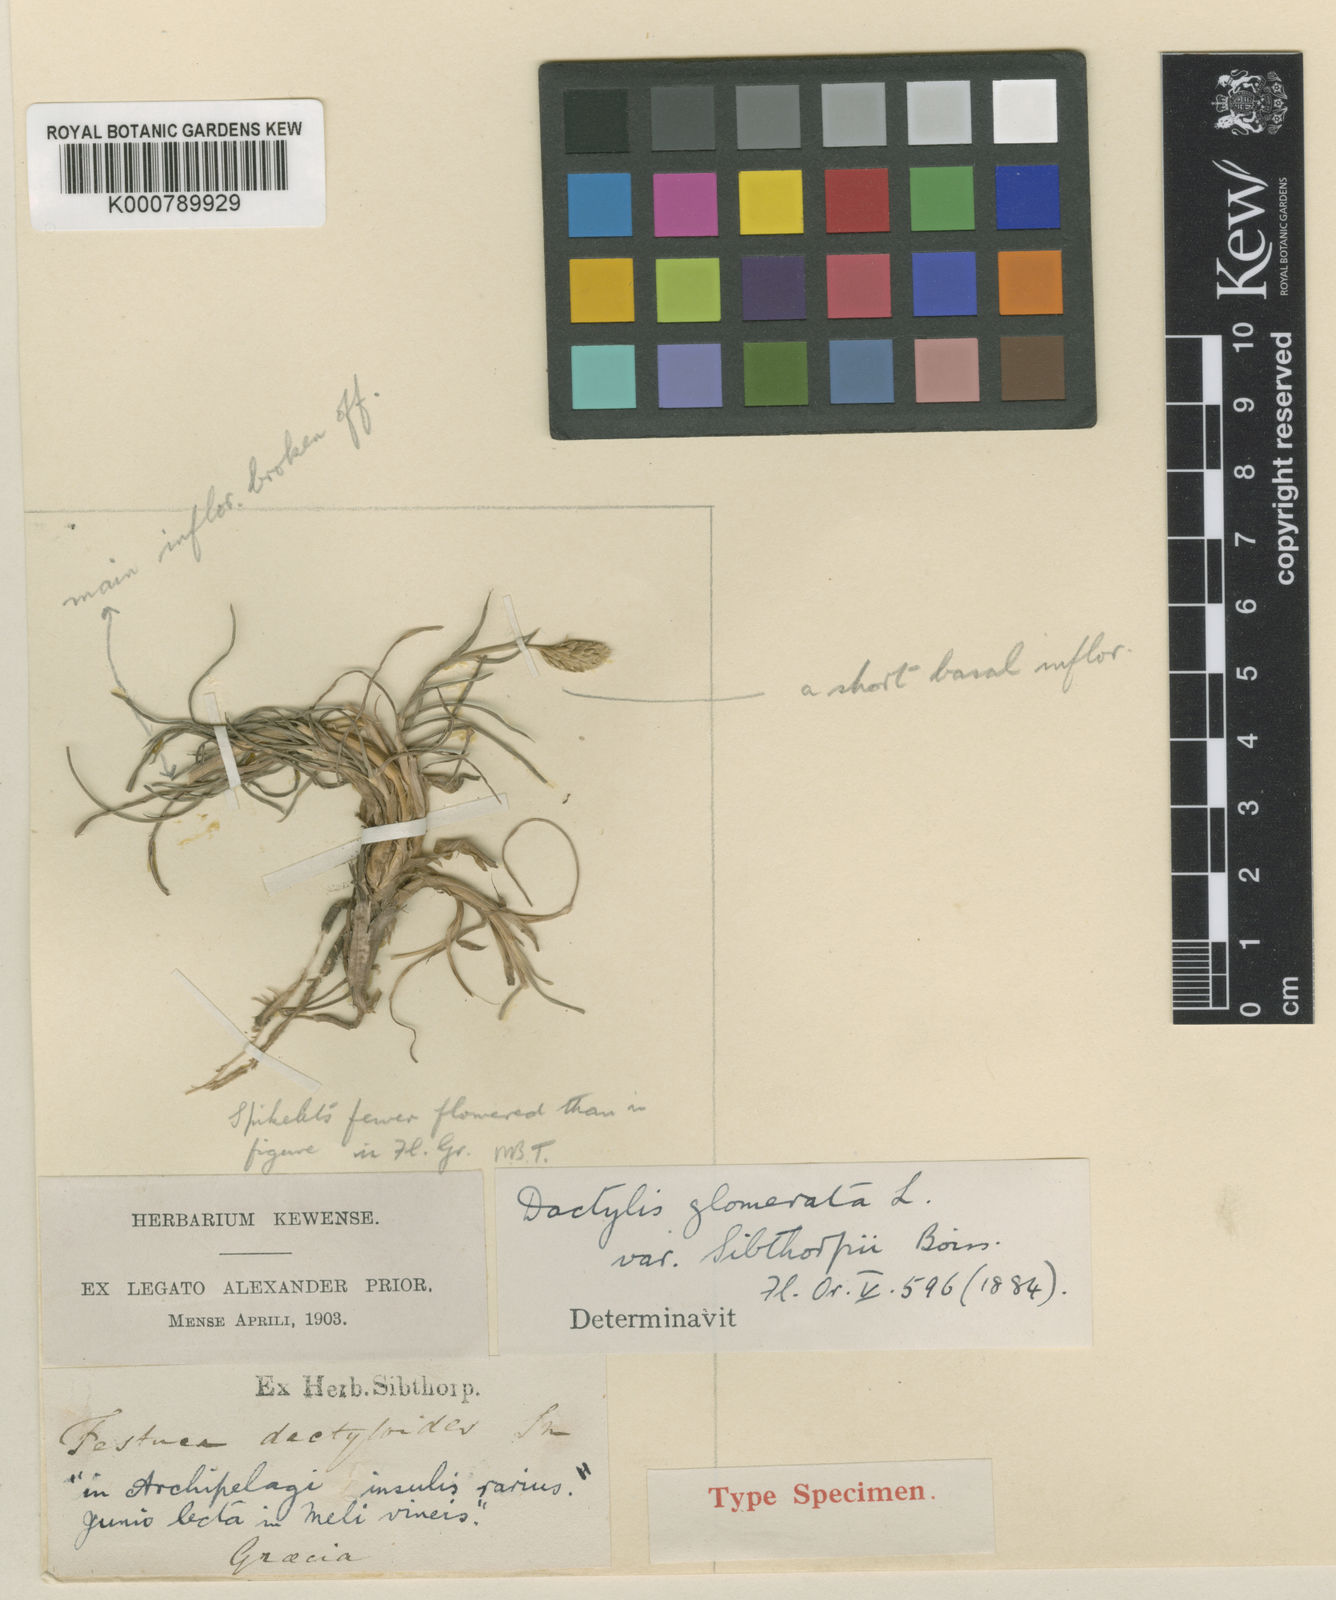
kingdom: Plantae
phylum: Tracheophyta
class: Liliopsida
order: Poales
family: Poaceae
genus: Dactylis
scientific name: Dactylis glomerata
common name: Orchardgrass
